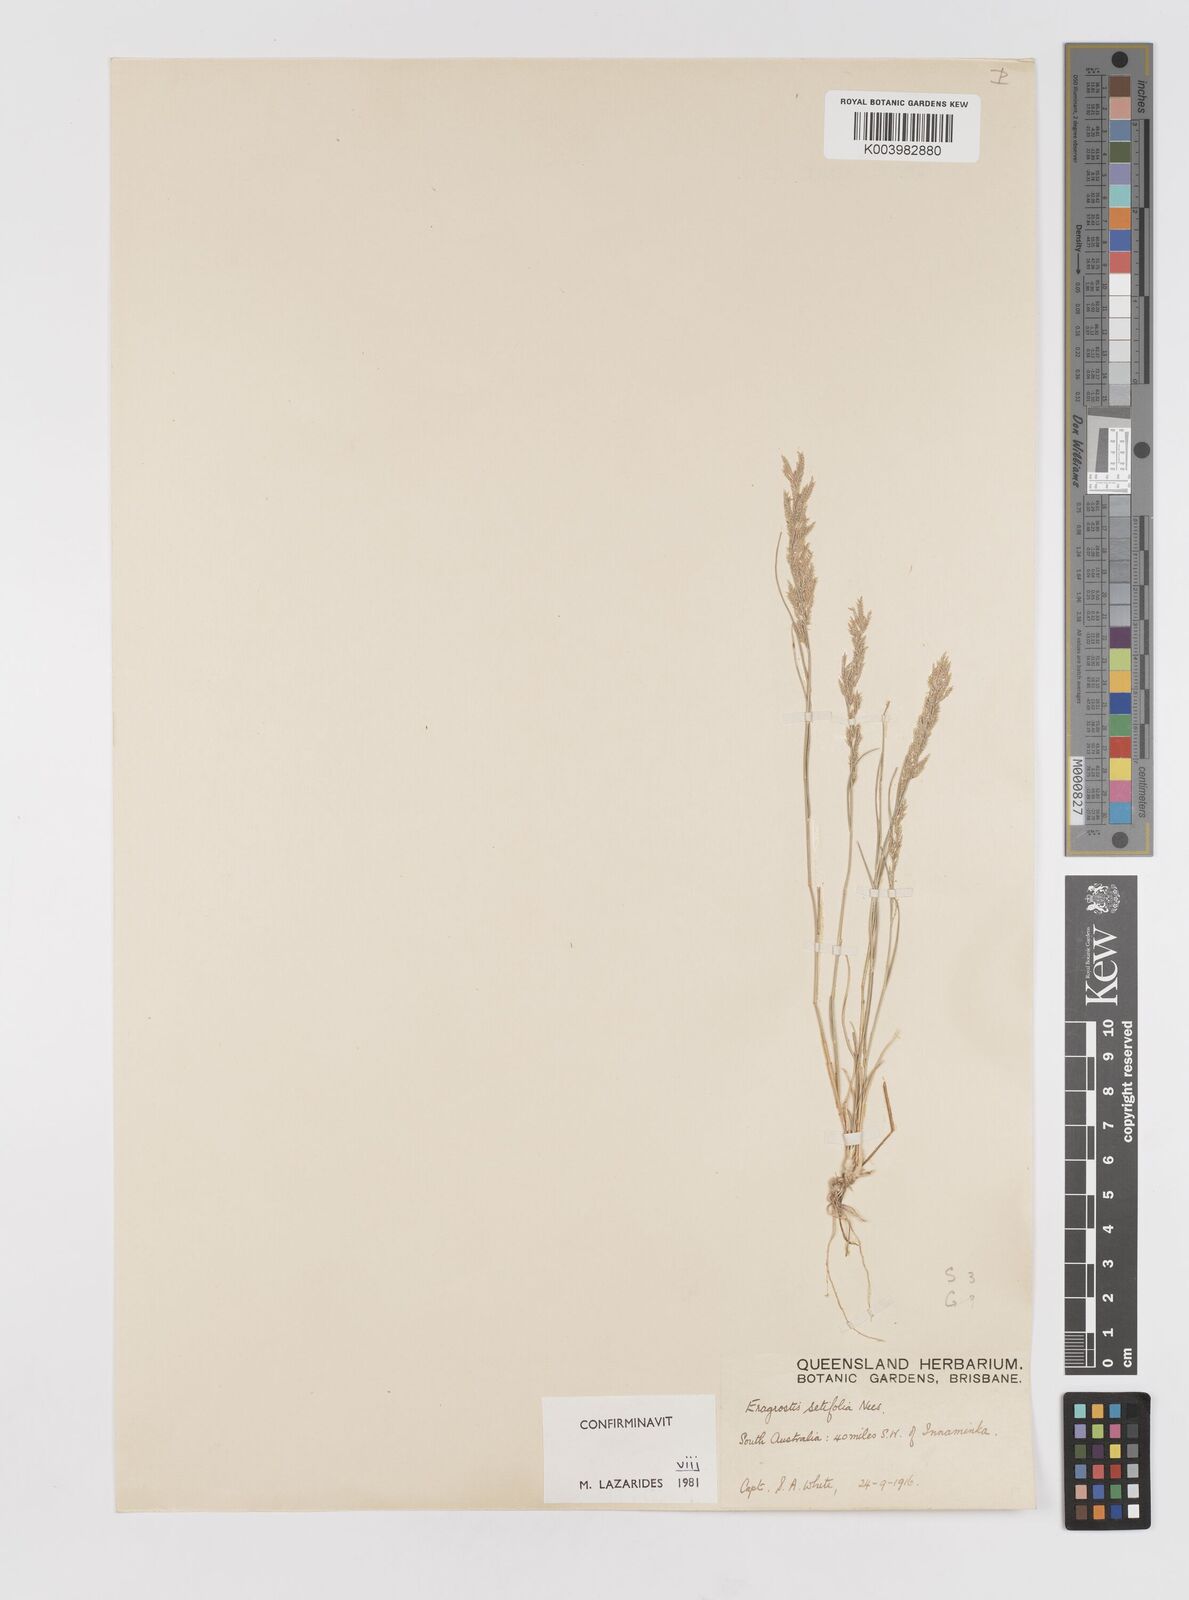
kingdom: Plantae
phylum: Tracheophyta
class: Liliopsida
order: Poales
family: Poaceae
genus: Eragrostis
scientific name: Eragrostis setifolia
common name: Bristleleaf lovegrass
